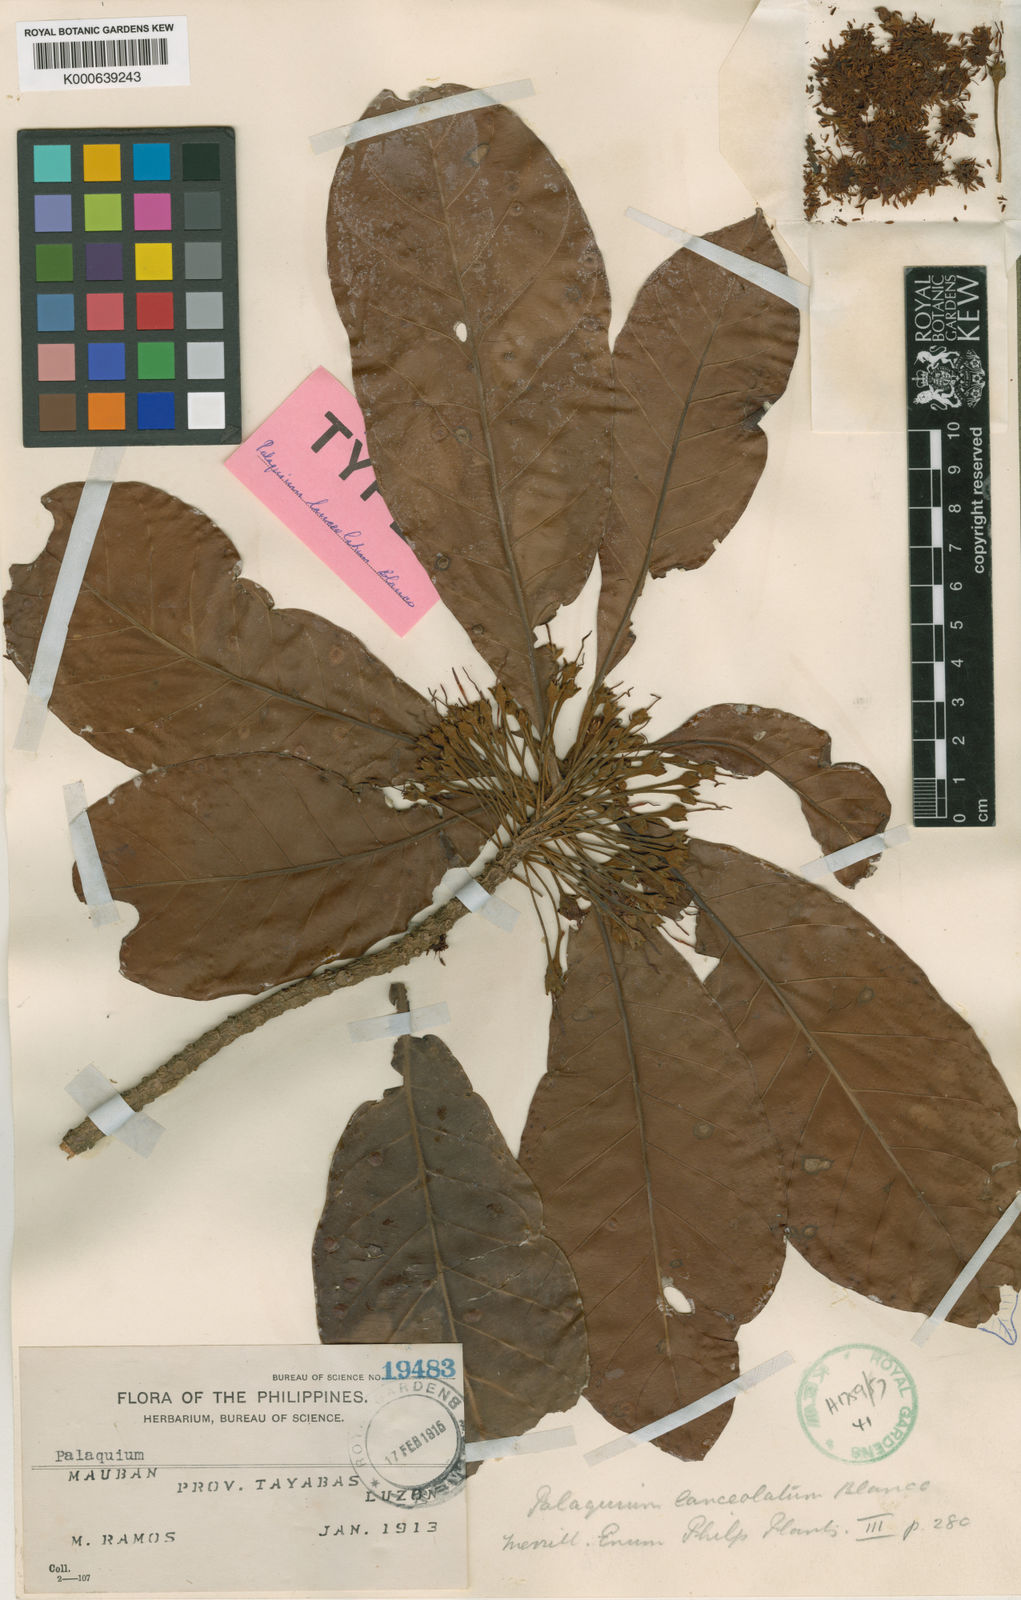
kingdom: Plantae
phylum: Tracheophyta
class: Magnoliopsida
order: Ericales
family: Sapotaceae
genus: Palaquium
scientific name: Palaquium lanceolatum
